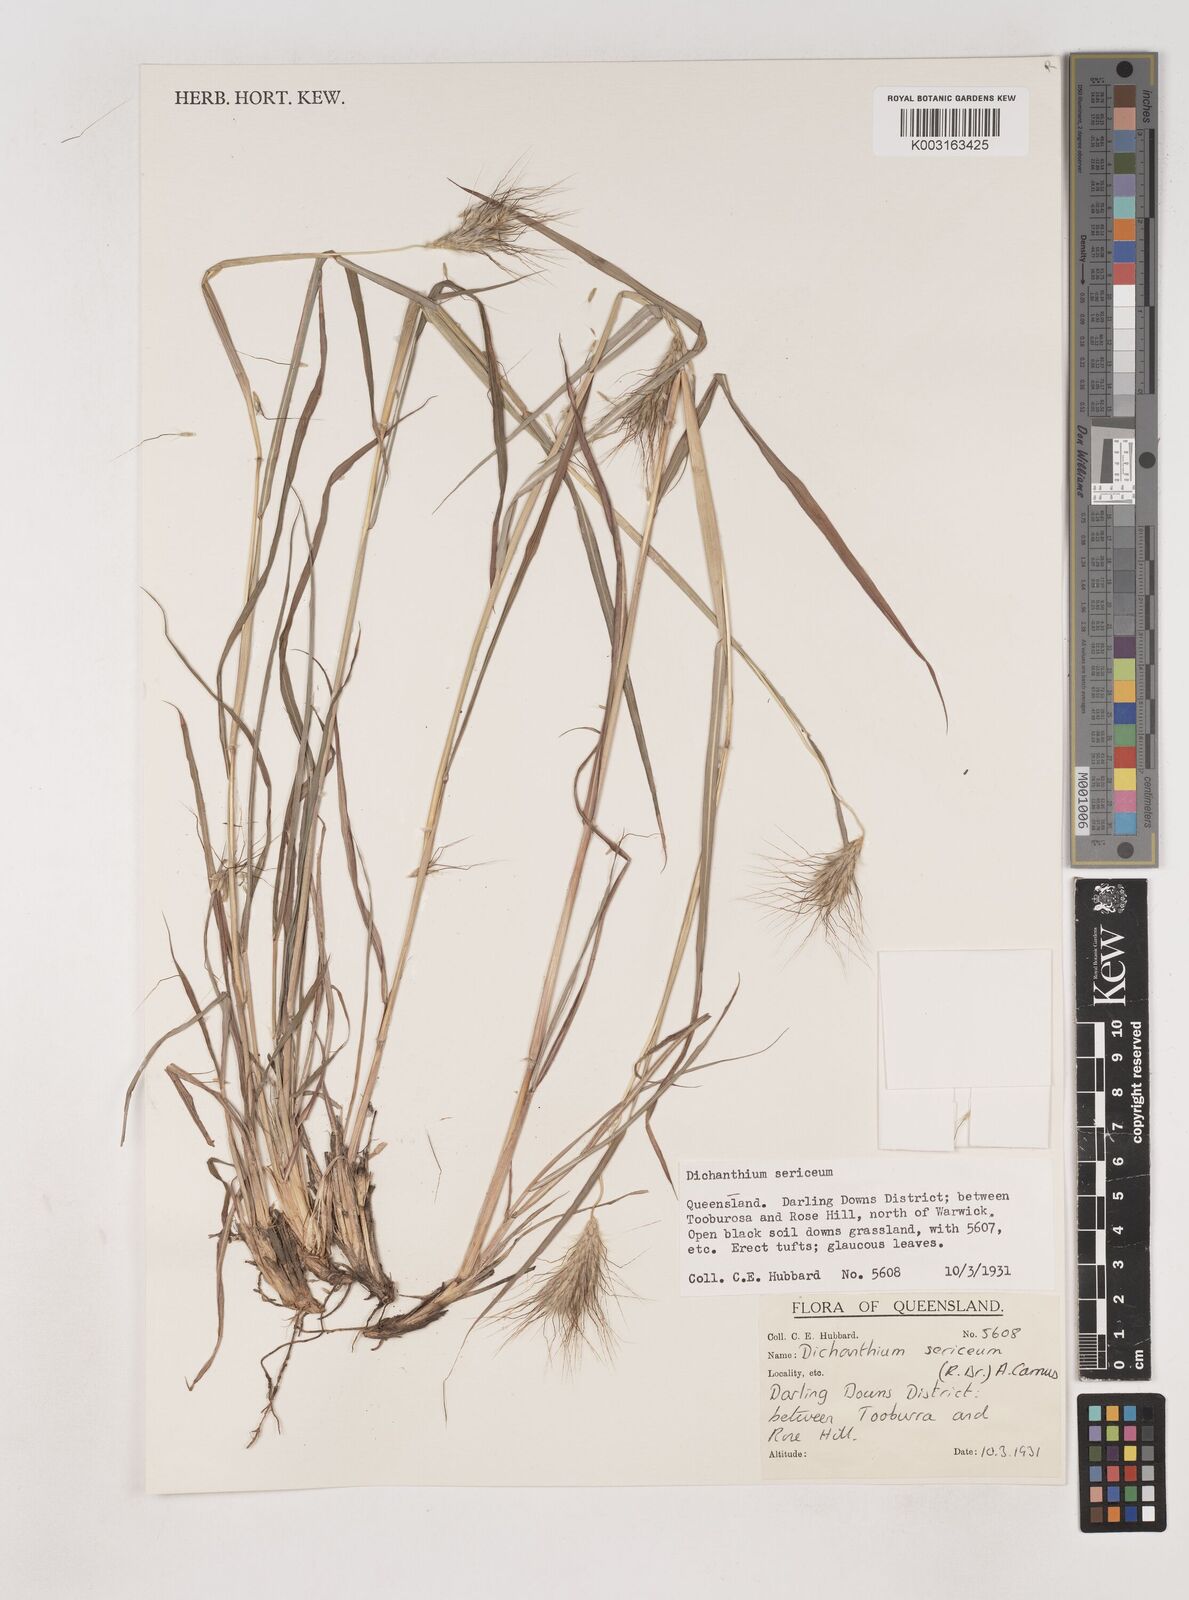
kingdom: Plantae
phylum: Tracheophyta
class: Liliopsida
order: Poales
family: Poaceae
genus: Dichanthium
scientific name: Dichanthium sericeum
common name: Silky bluestem
